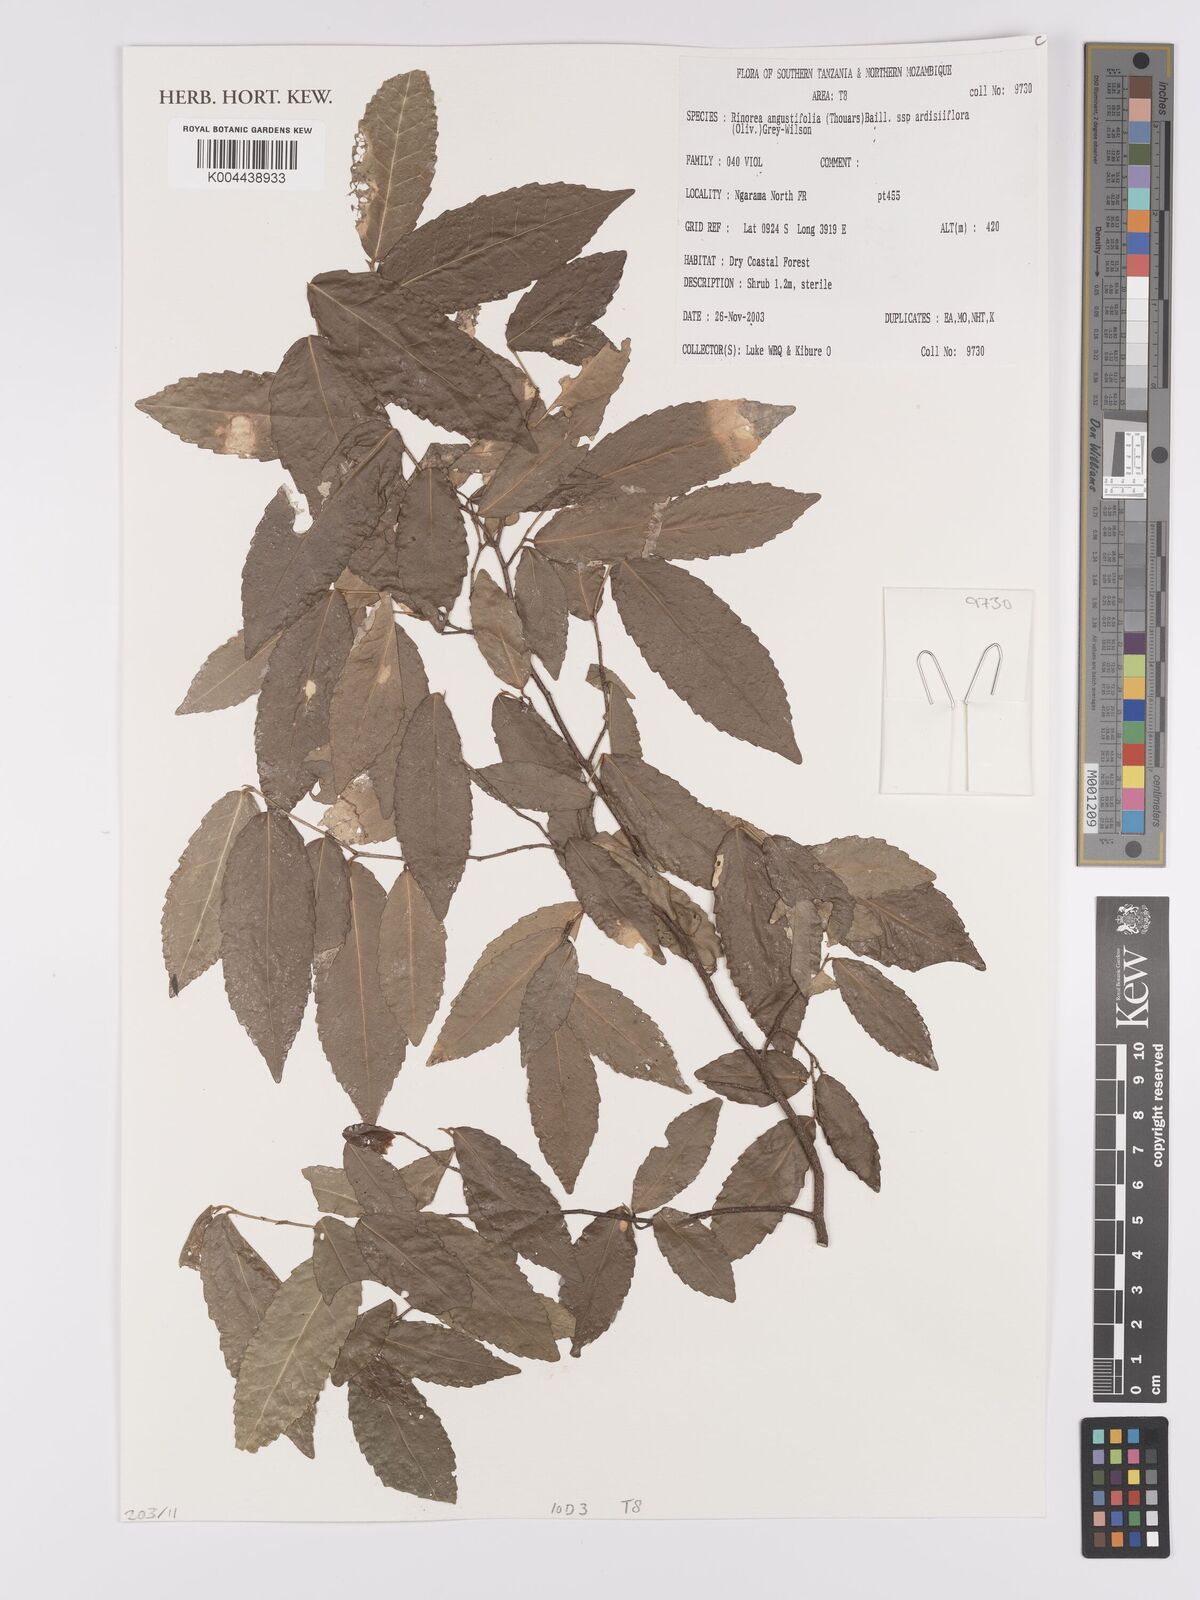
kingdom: Plantae
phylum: Tracheophyta
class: Magnoliopsida
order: Malpighiales
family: Violaceae
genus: Rinorea
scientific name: Rinorea angustifolia
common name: White violet-bush
